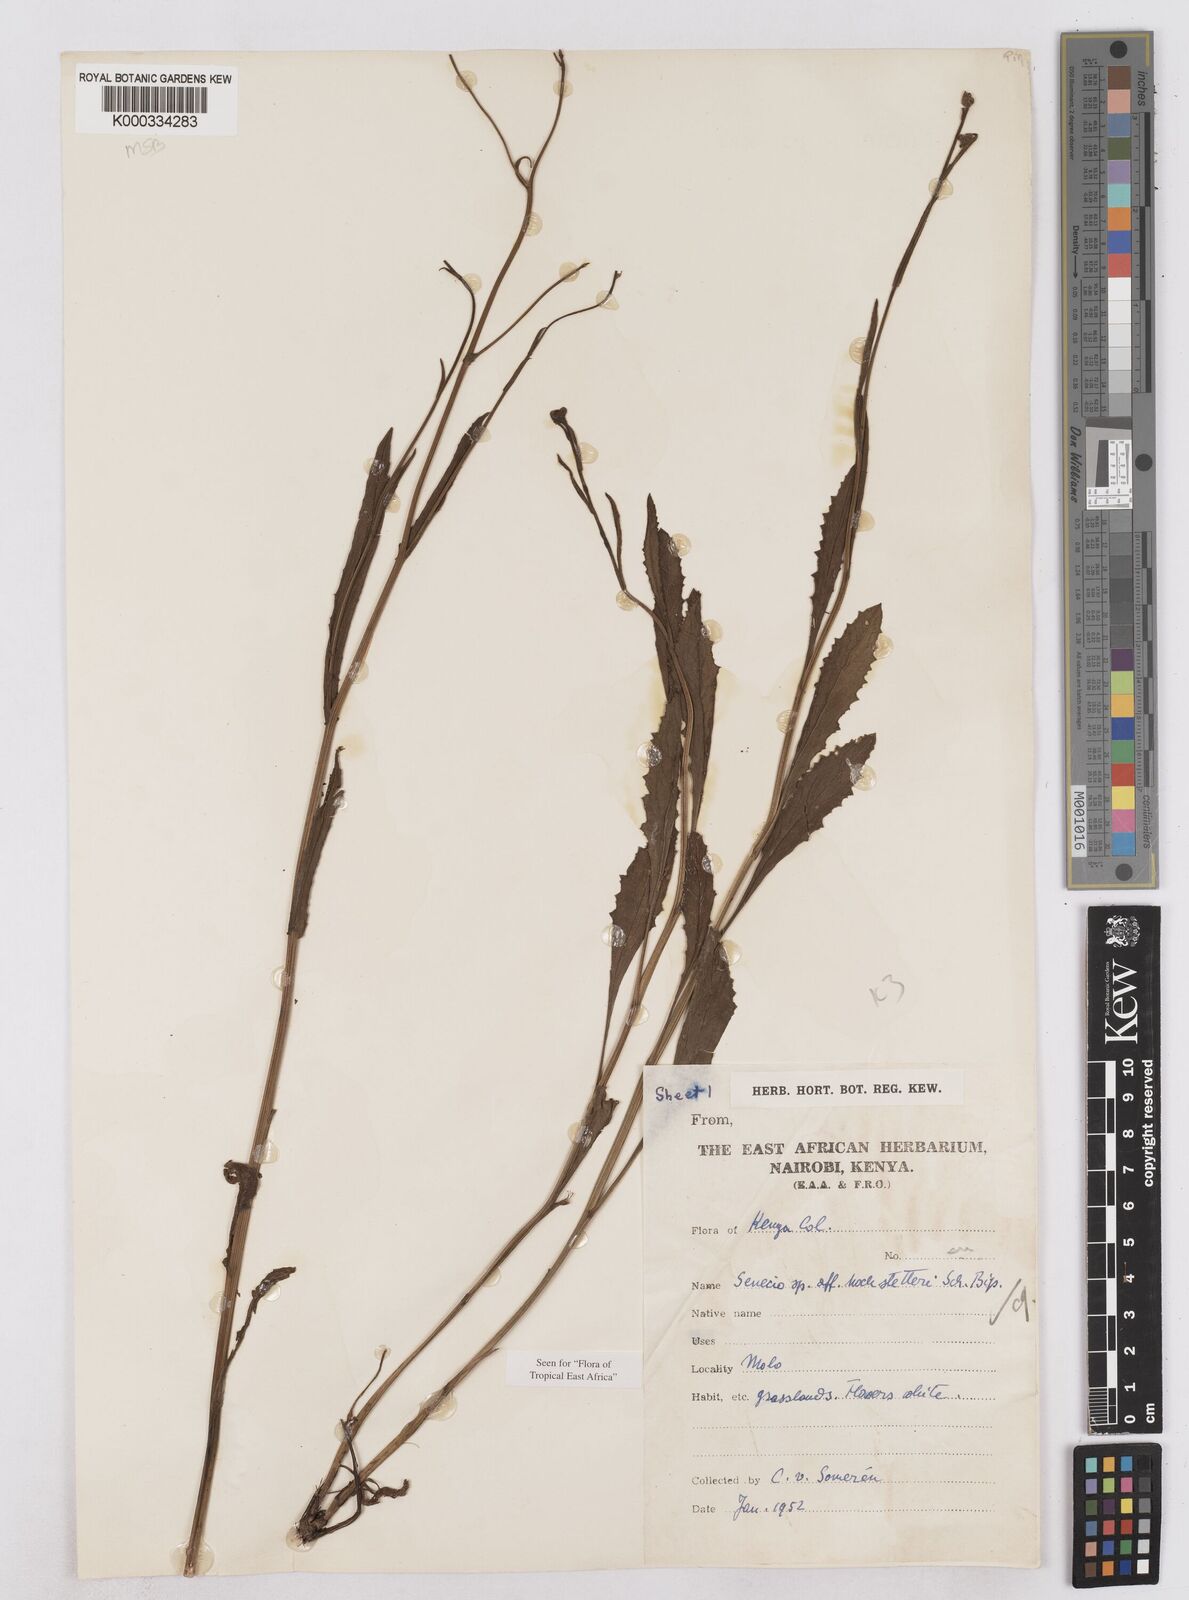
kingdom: Plantae
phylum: Tracheophyta
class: Magnoliopsida
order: Asterales
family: Asteraceae
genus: Senecio
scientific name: Senecio hochstetteri
